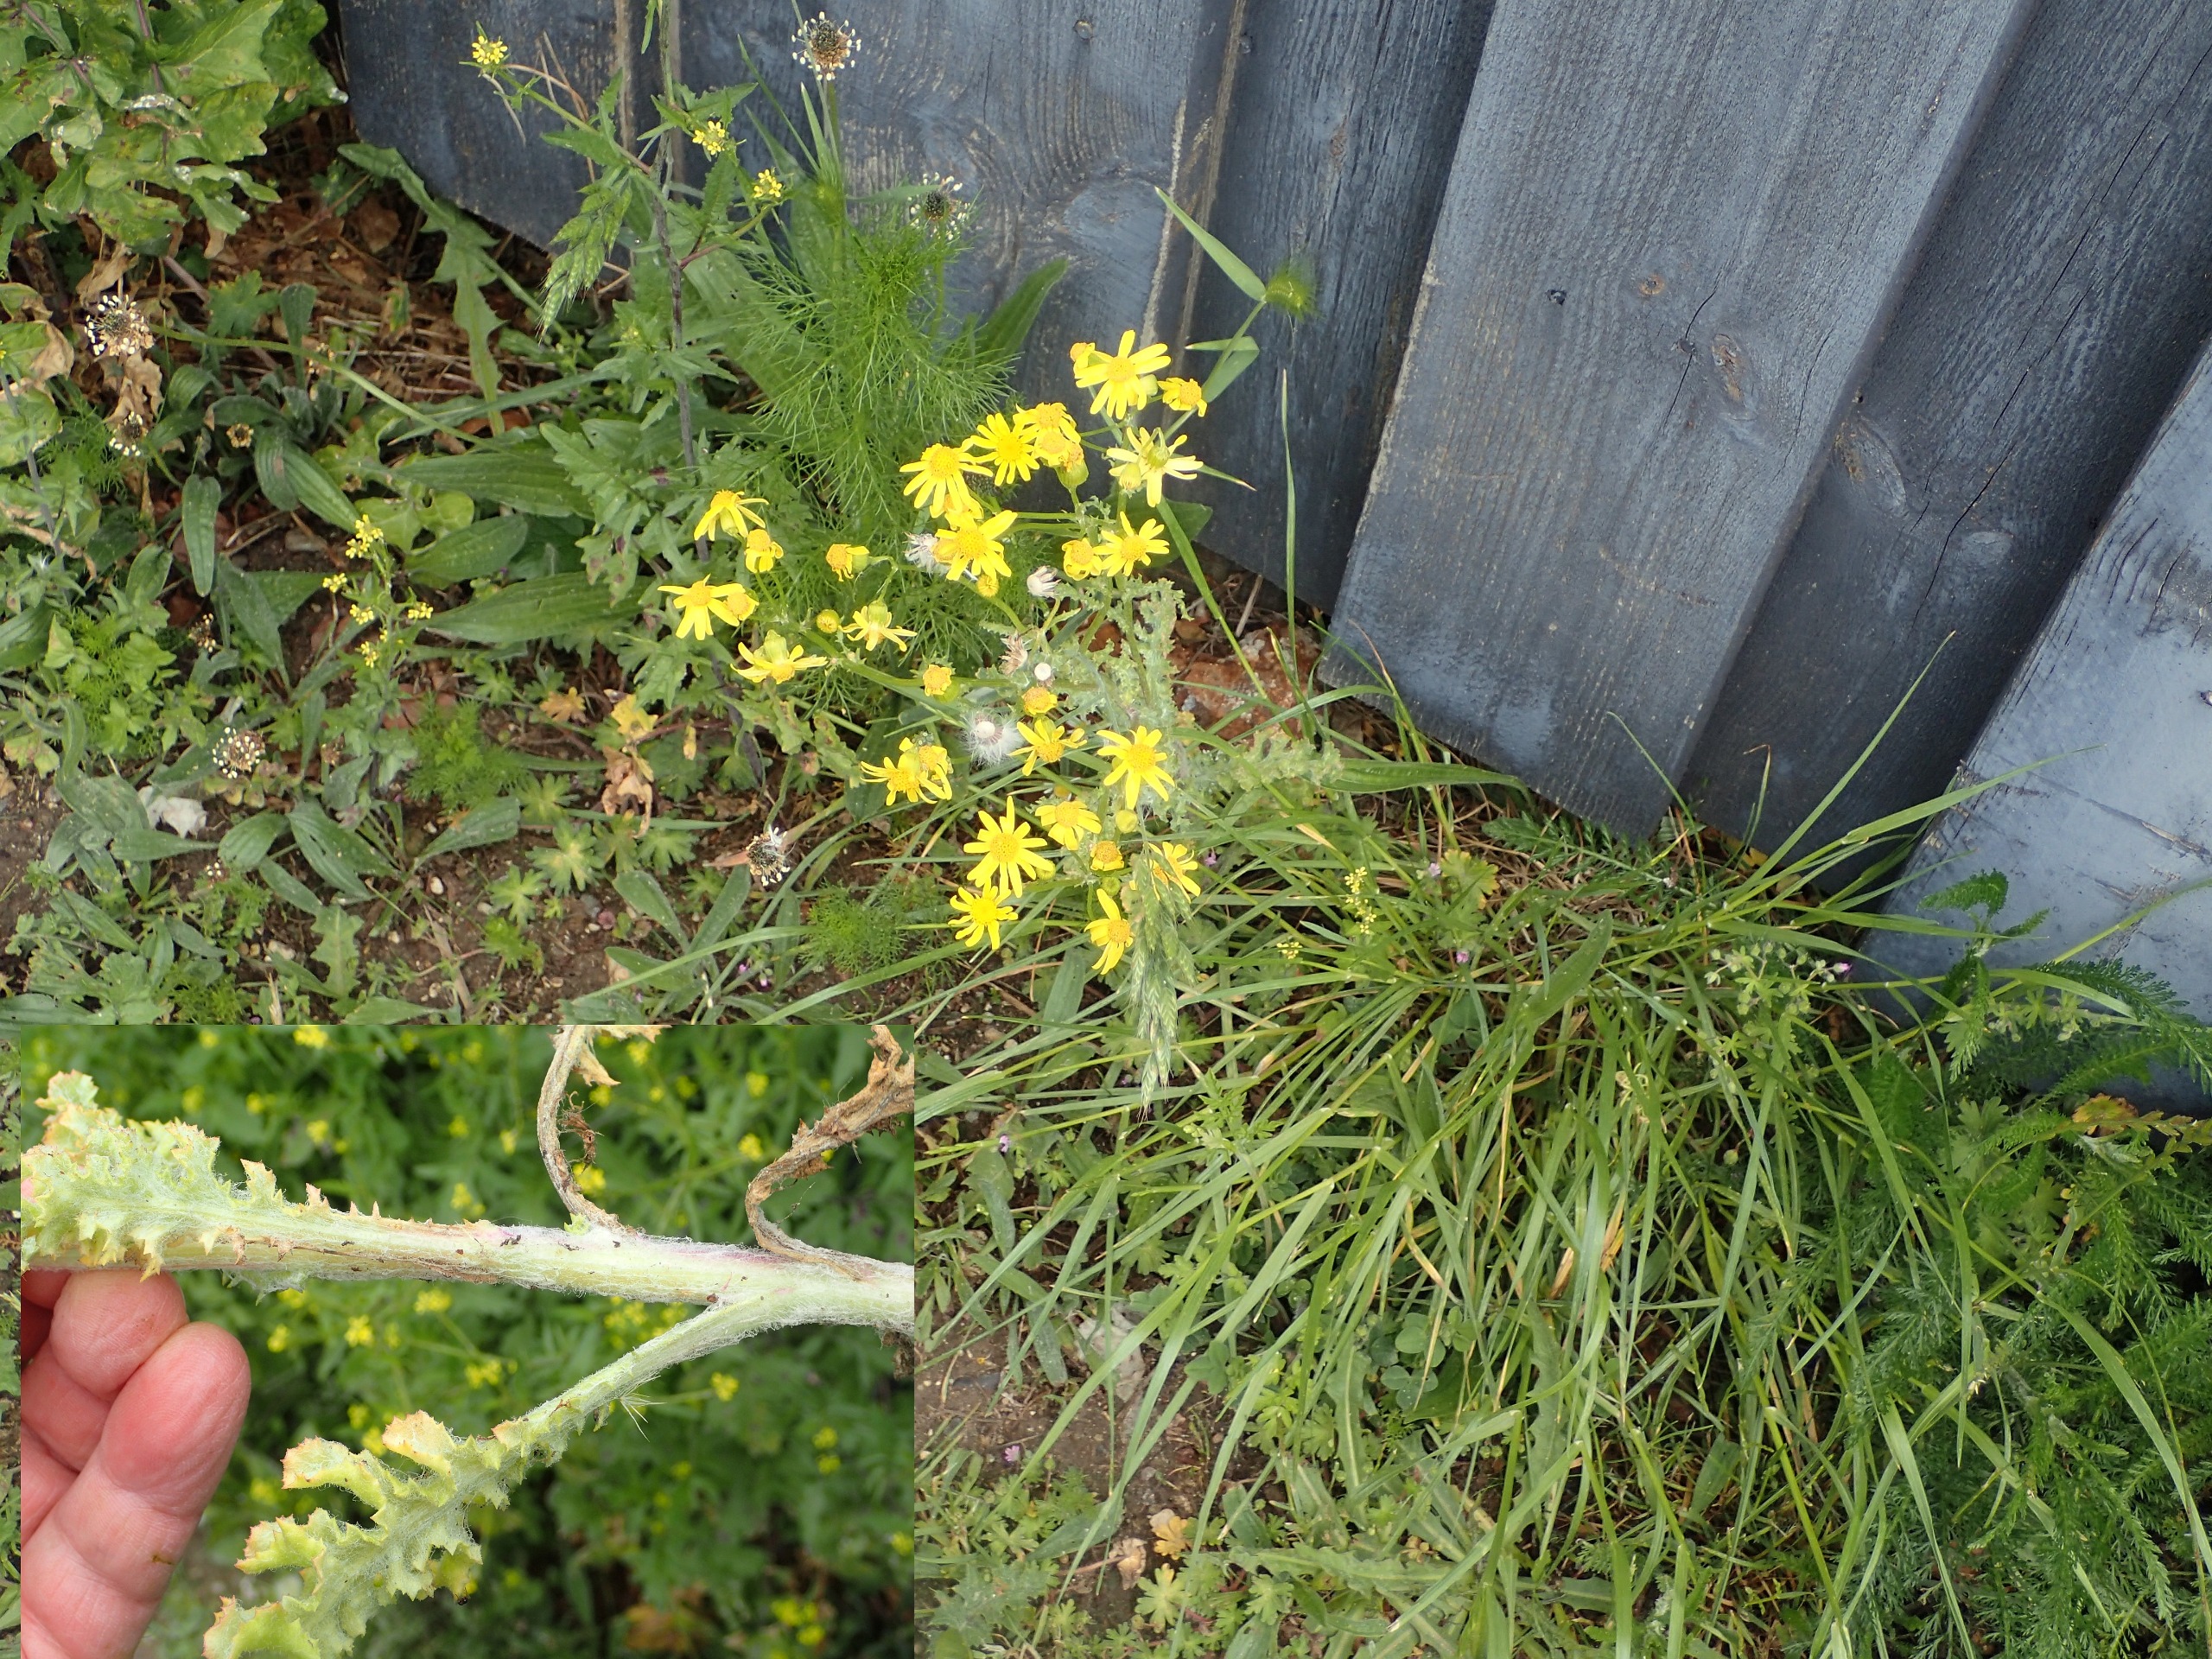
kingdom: Plantae
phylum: Tracheophyta
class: Magnoliopsida
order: Asterales
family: Asteraceae
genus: Senecio
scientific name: Senecio leucanthemifolius
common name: Vår-brandbæger
